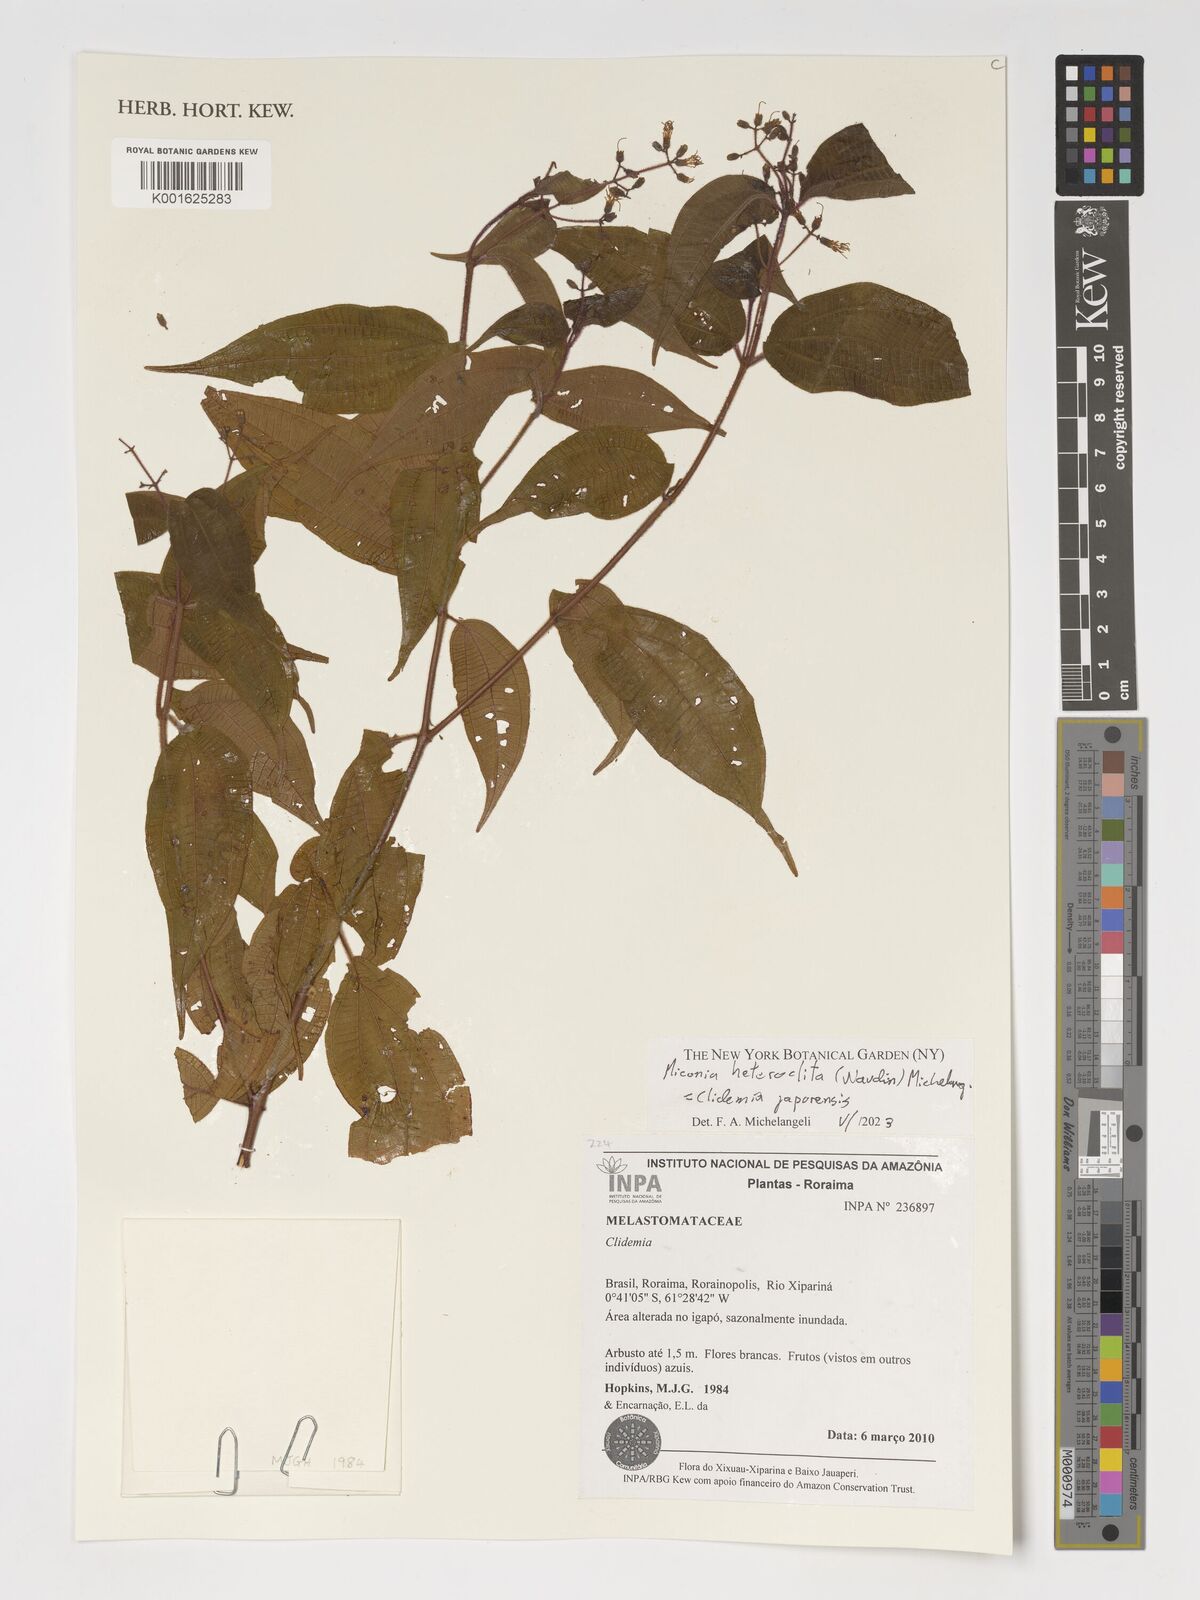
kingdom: Plantae
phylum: Tracheophyta
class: Magnoliopsida
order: Myrtales
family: Melastomataceae
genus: Miconia
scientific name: Miconia
